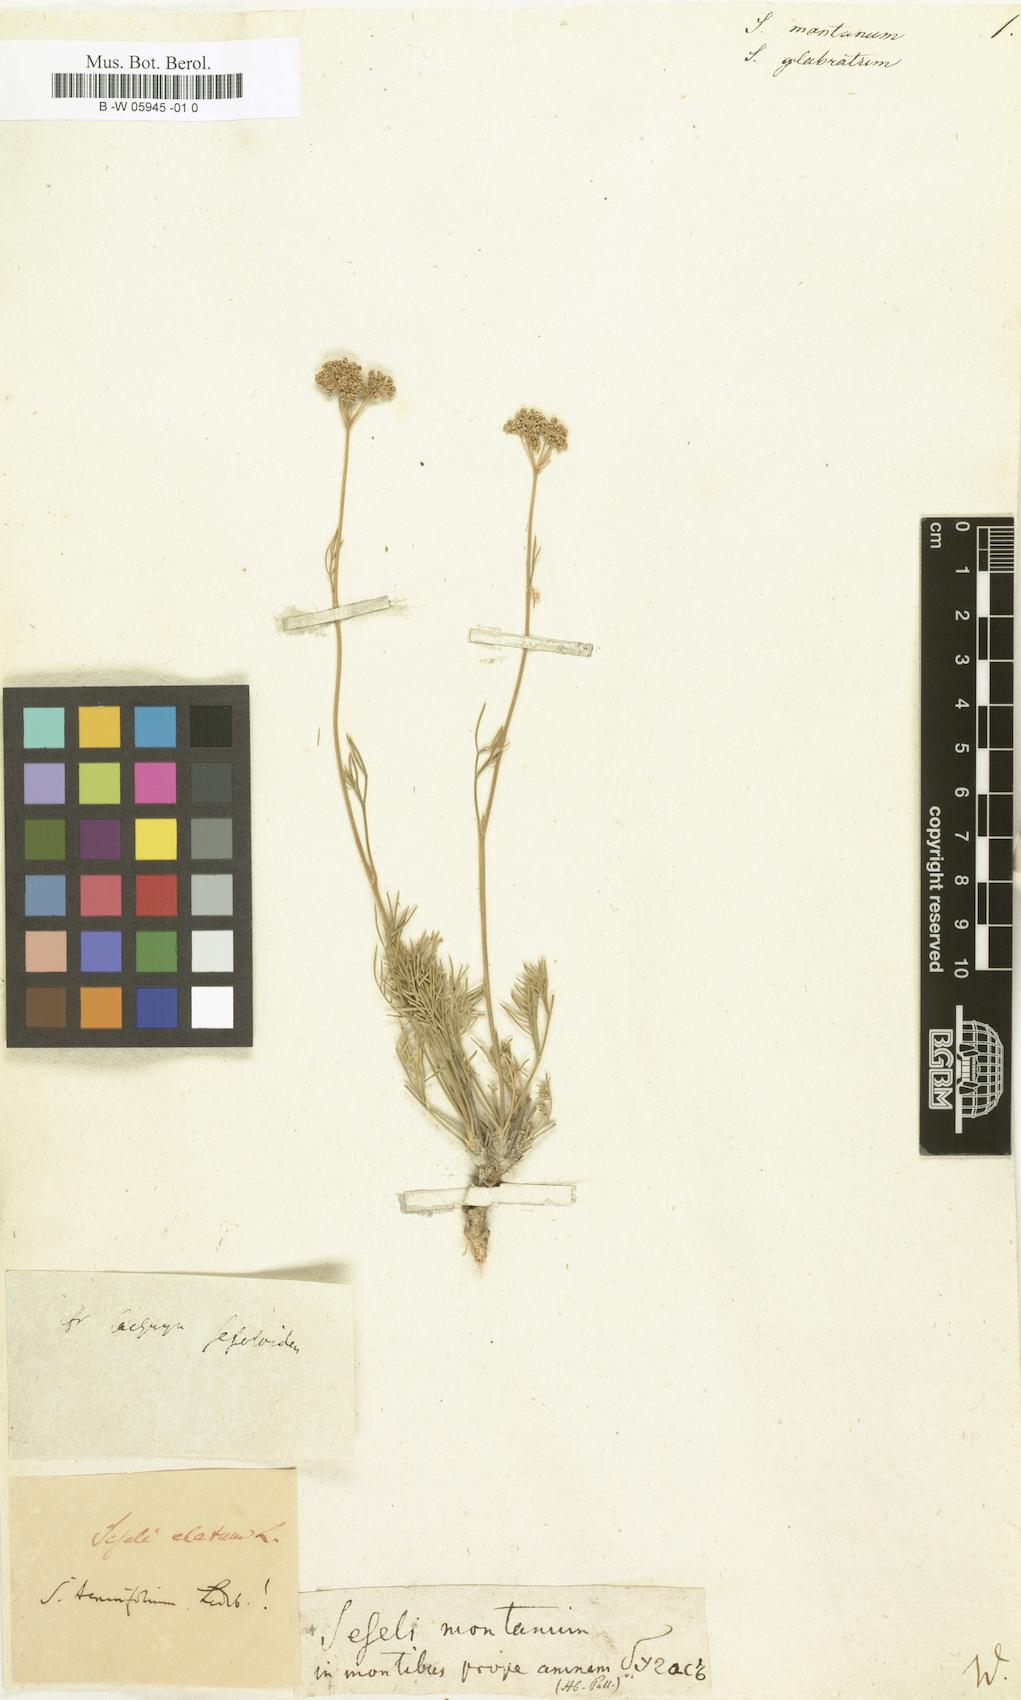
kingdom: Plantae
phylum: Tracheophyta
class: Magnoliopsida
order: Apiales
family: Apiaceae
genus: Seseli
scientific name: Seseli montanum
